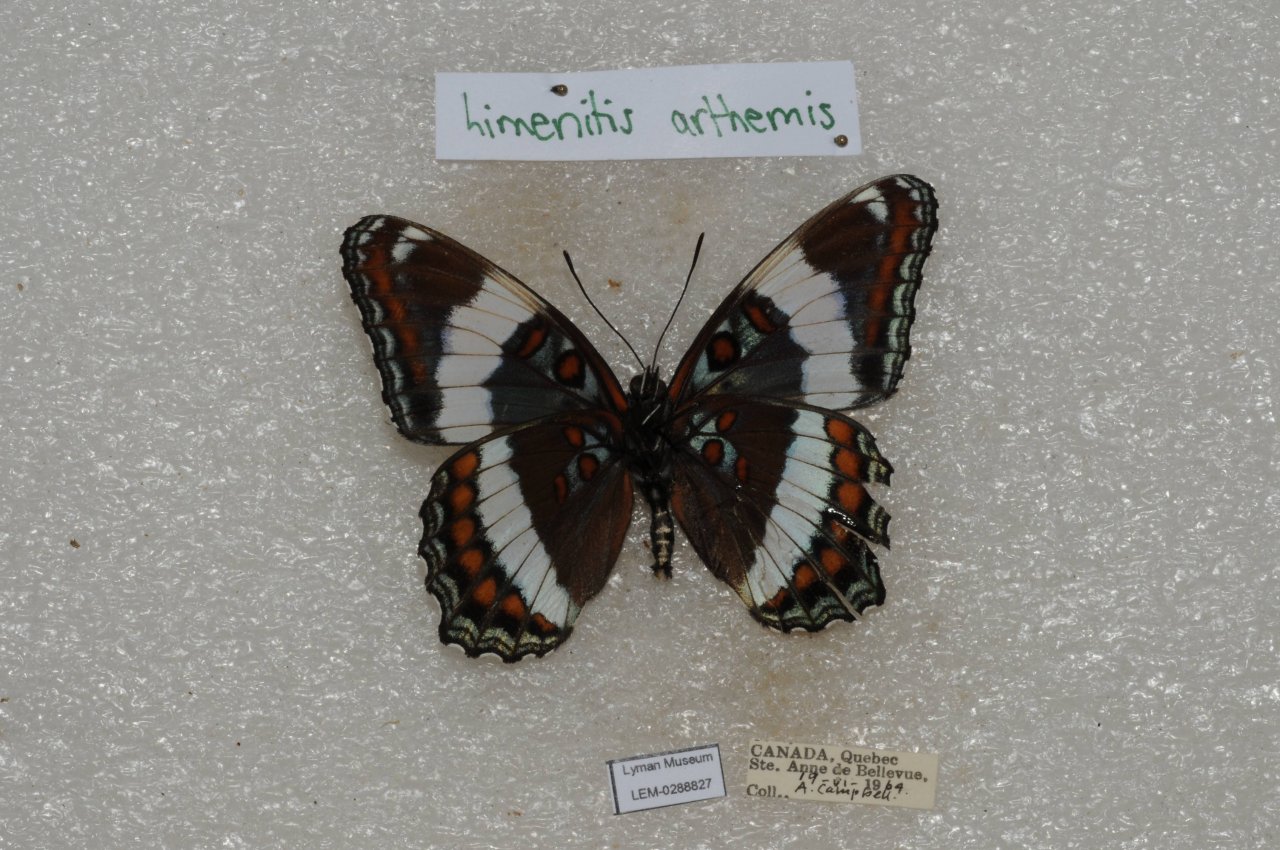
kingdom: Animalia
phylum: Arthropoda
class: Insecta
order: Lepidoptera
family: Nymphalidae
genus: Limenitis
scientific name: Limenitis arthemis
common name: Red-spotted Admiral
